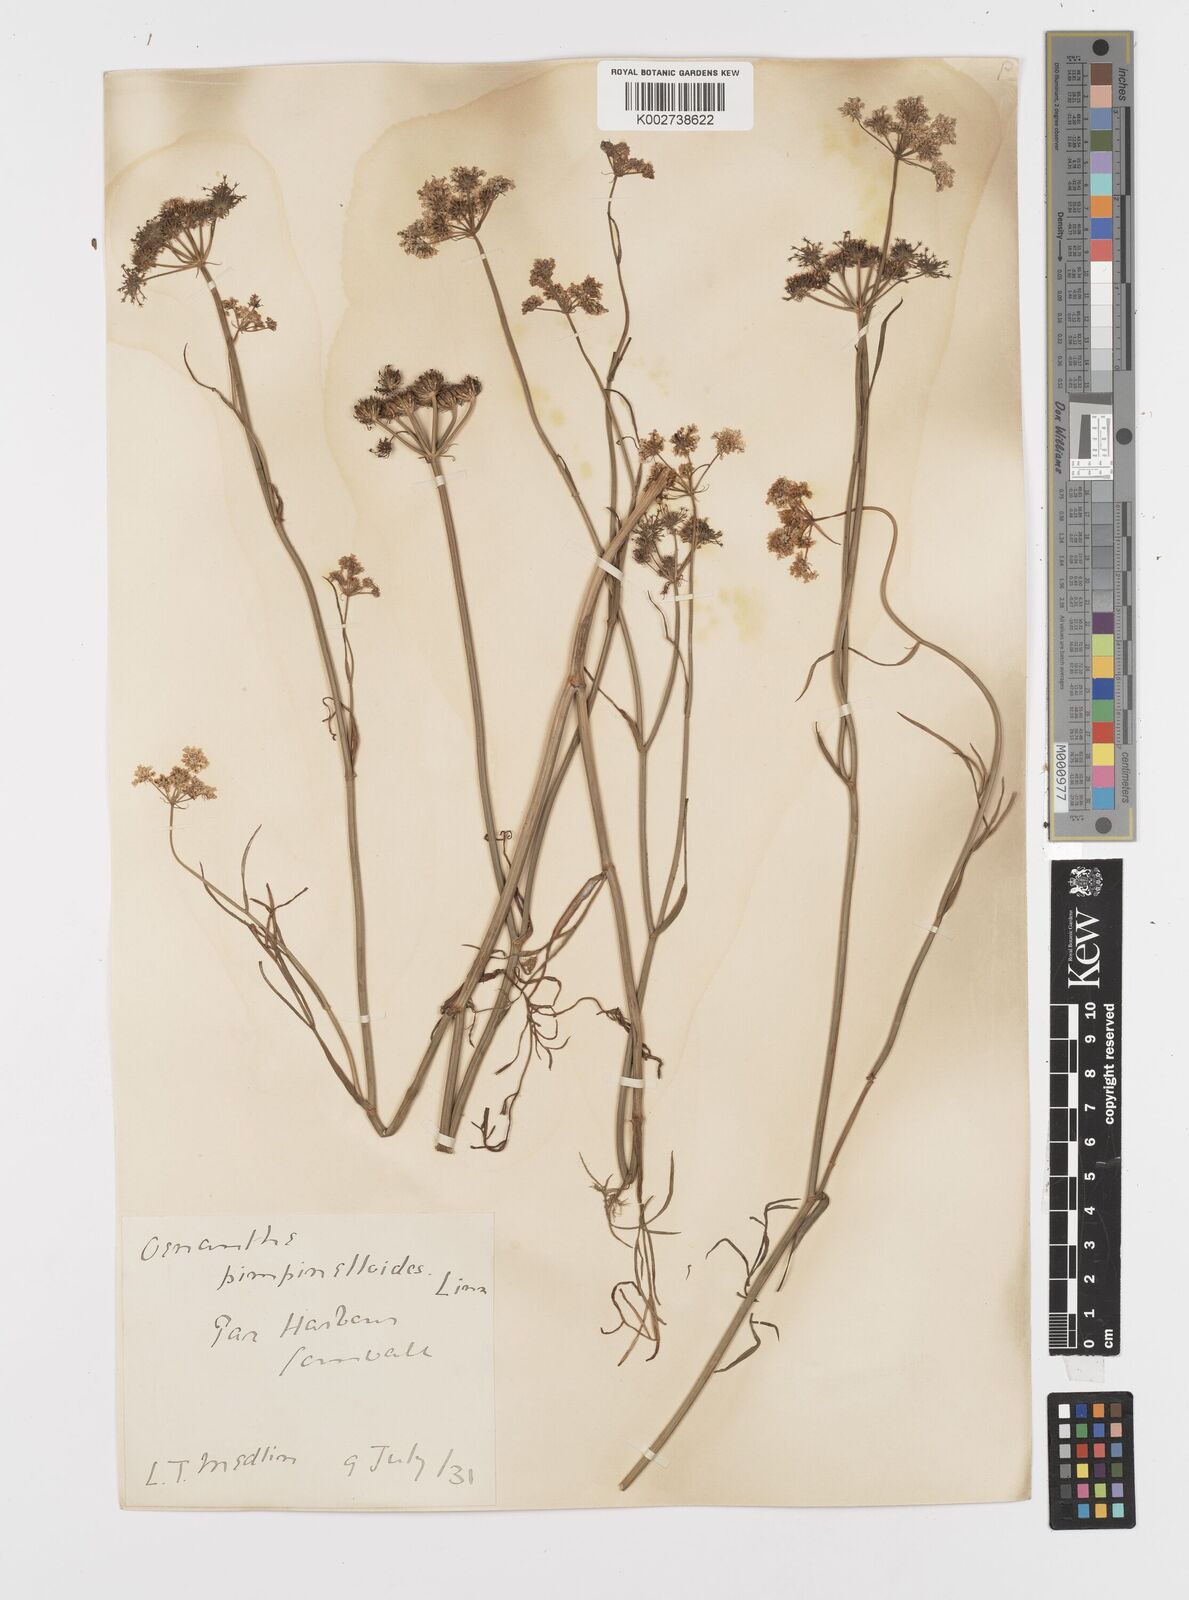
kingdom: Plantae
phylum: Tracheophyta
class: Magnoliopsida
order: Apiales
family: Apiaceae
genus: Oenanthe
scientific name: Oenanthe pimpinelloides
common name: Corky-fruited water-dropwort
